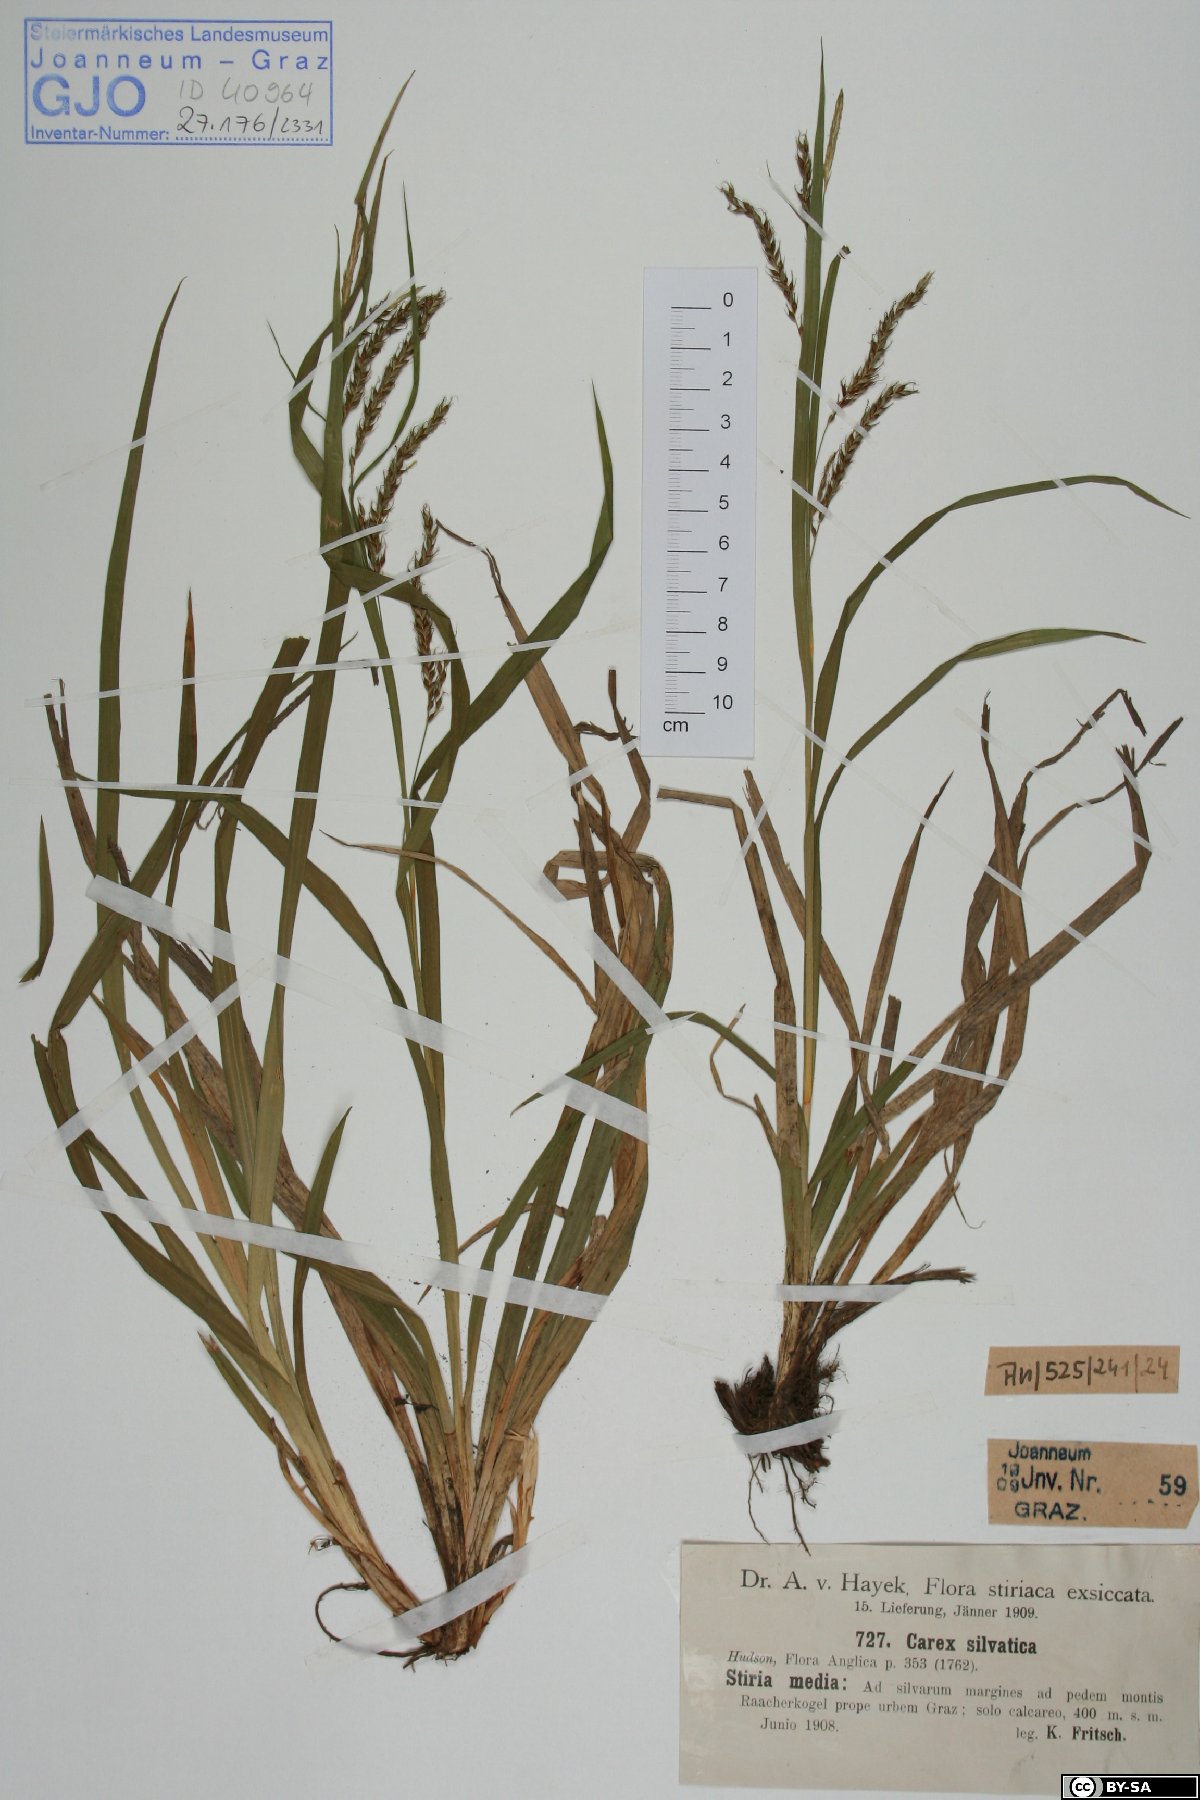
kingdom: Plantae
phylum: Tracheophyta
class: Liliopsida
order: Poales
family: Cyperaceae
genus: Carex
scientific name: Carex sylvatica
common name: Wood-sedge
